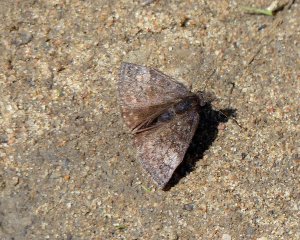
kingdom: Animalia
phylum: Arthropoda
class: Insecta
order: Lepidoptera
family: Hesperiidae
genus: Erynnis
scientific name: Erynnis icelus
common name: Dreamy Duskywing
